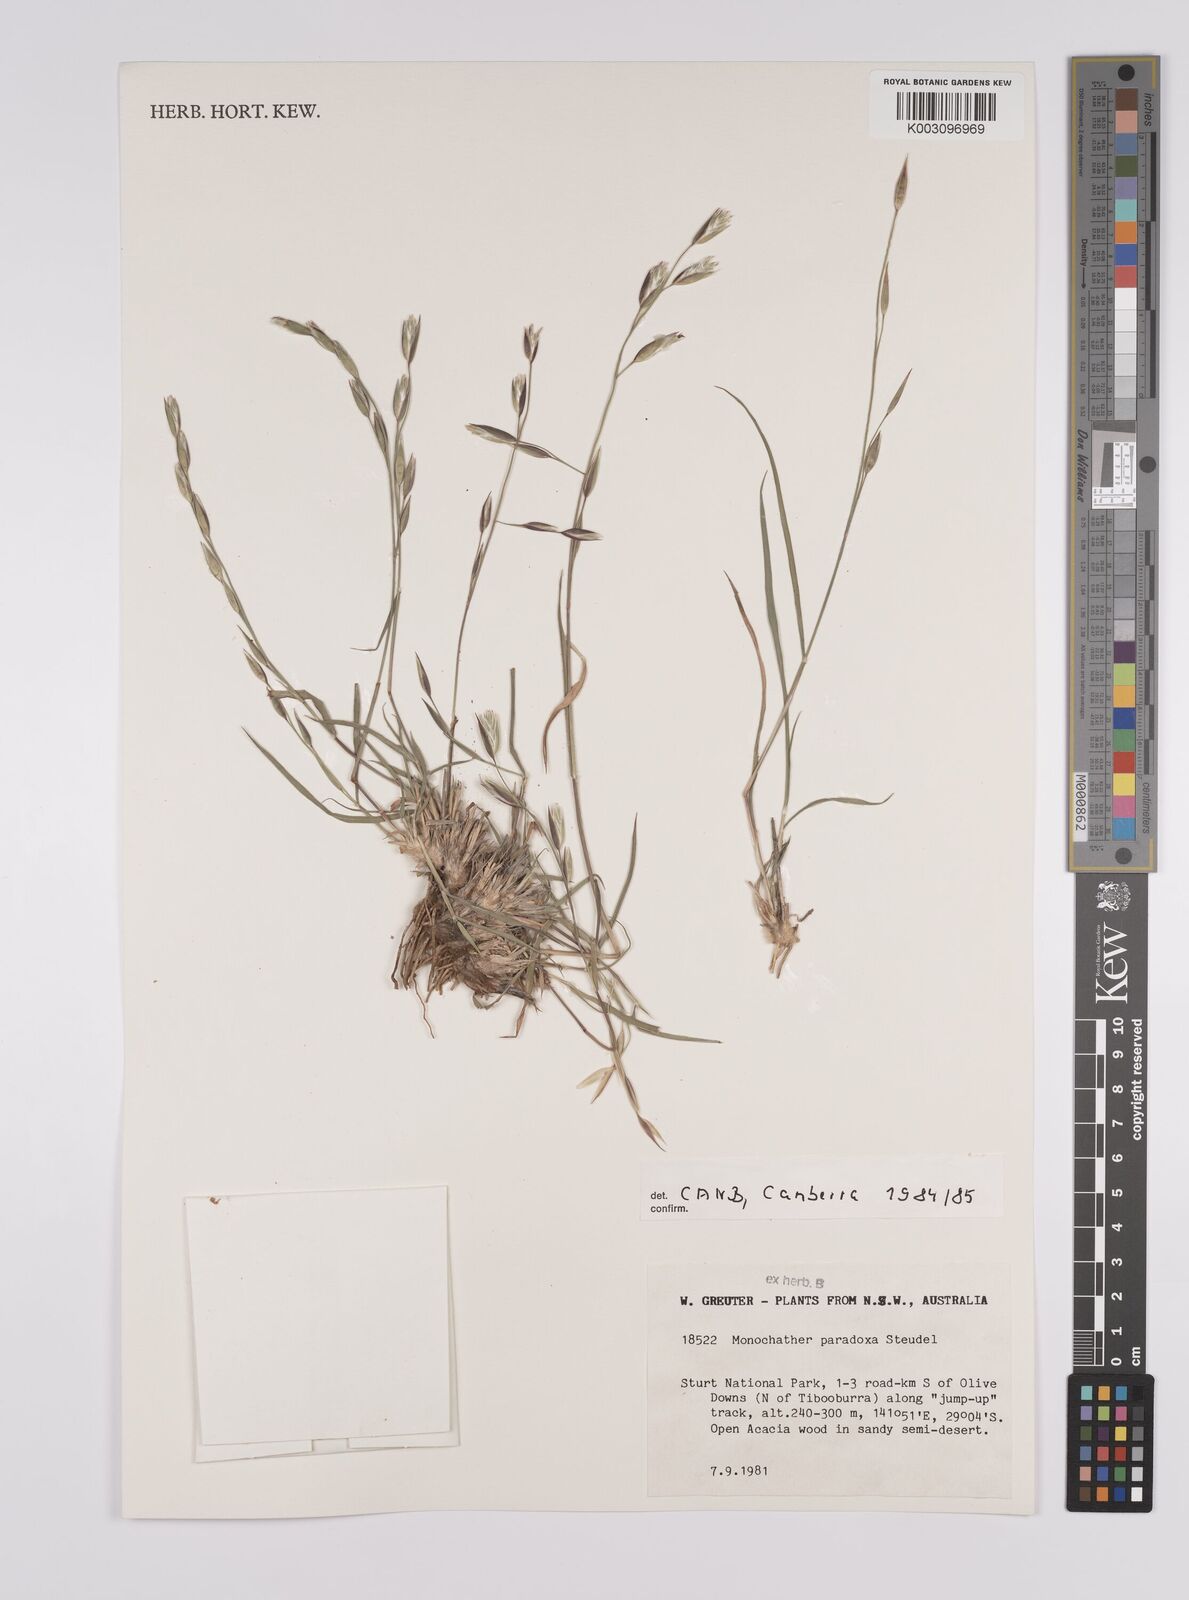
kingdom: Plantae
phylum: Tracheophyta
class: Liliopsida
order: Poales
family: Poaceae
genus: Monachather
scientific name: Monachather paradoxus
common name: Bandicoot grass
